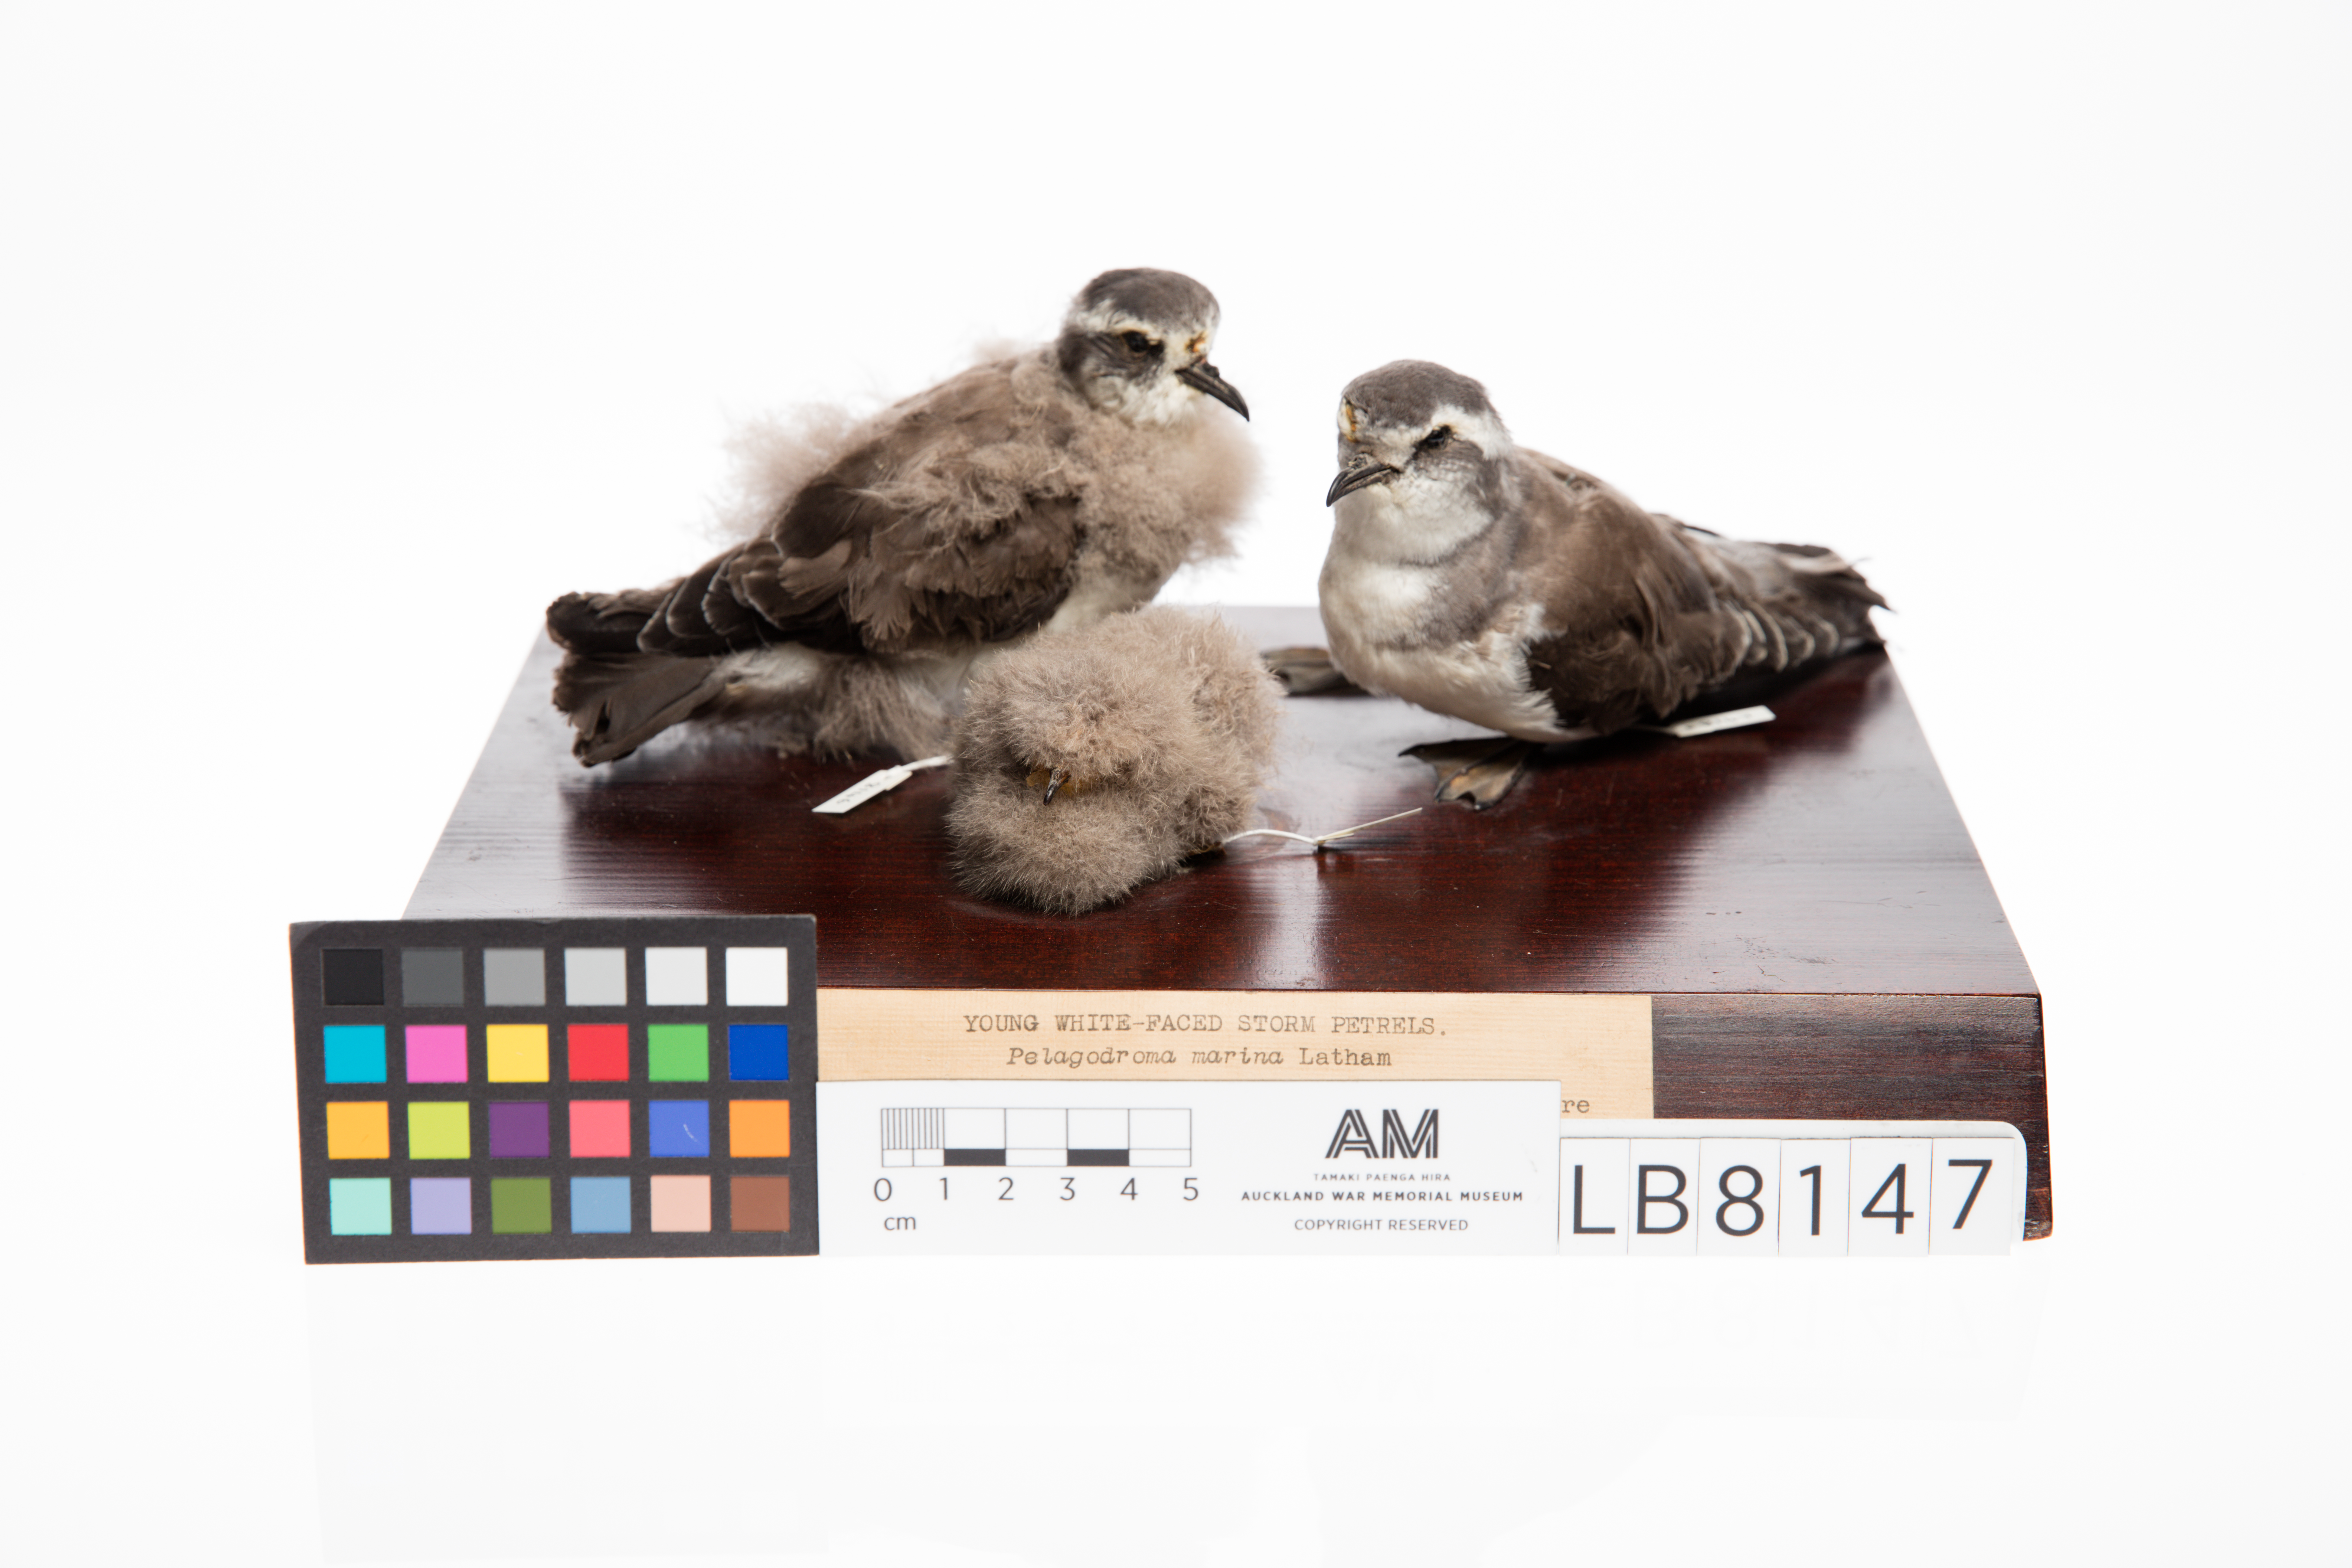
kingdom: Animalia
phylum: Chordata
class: Aves
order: Procellariiformes
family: Hydrobatidae
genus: Pelagodroma
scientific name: Pelagodroma marina
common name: White-faced storm-petrel
